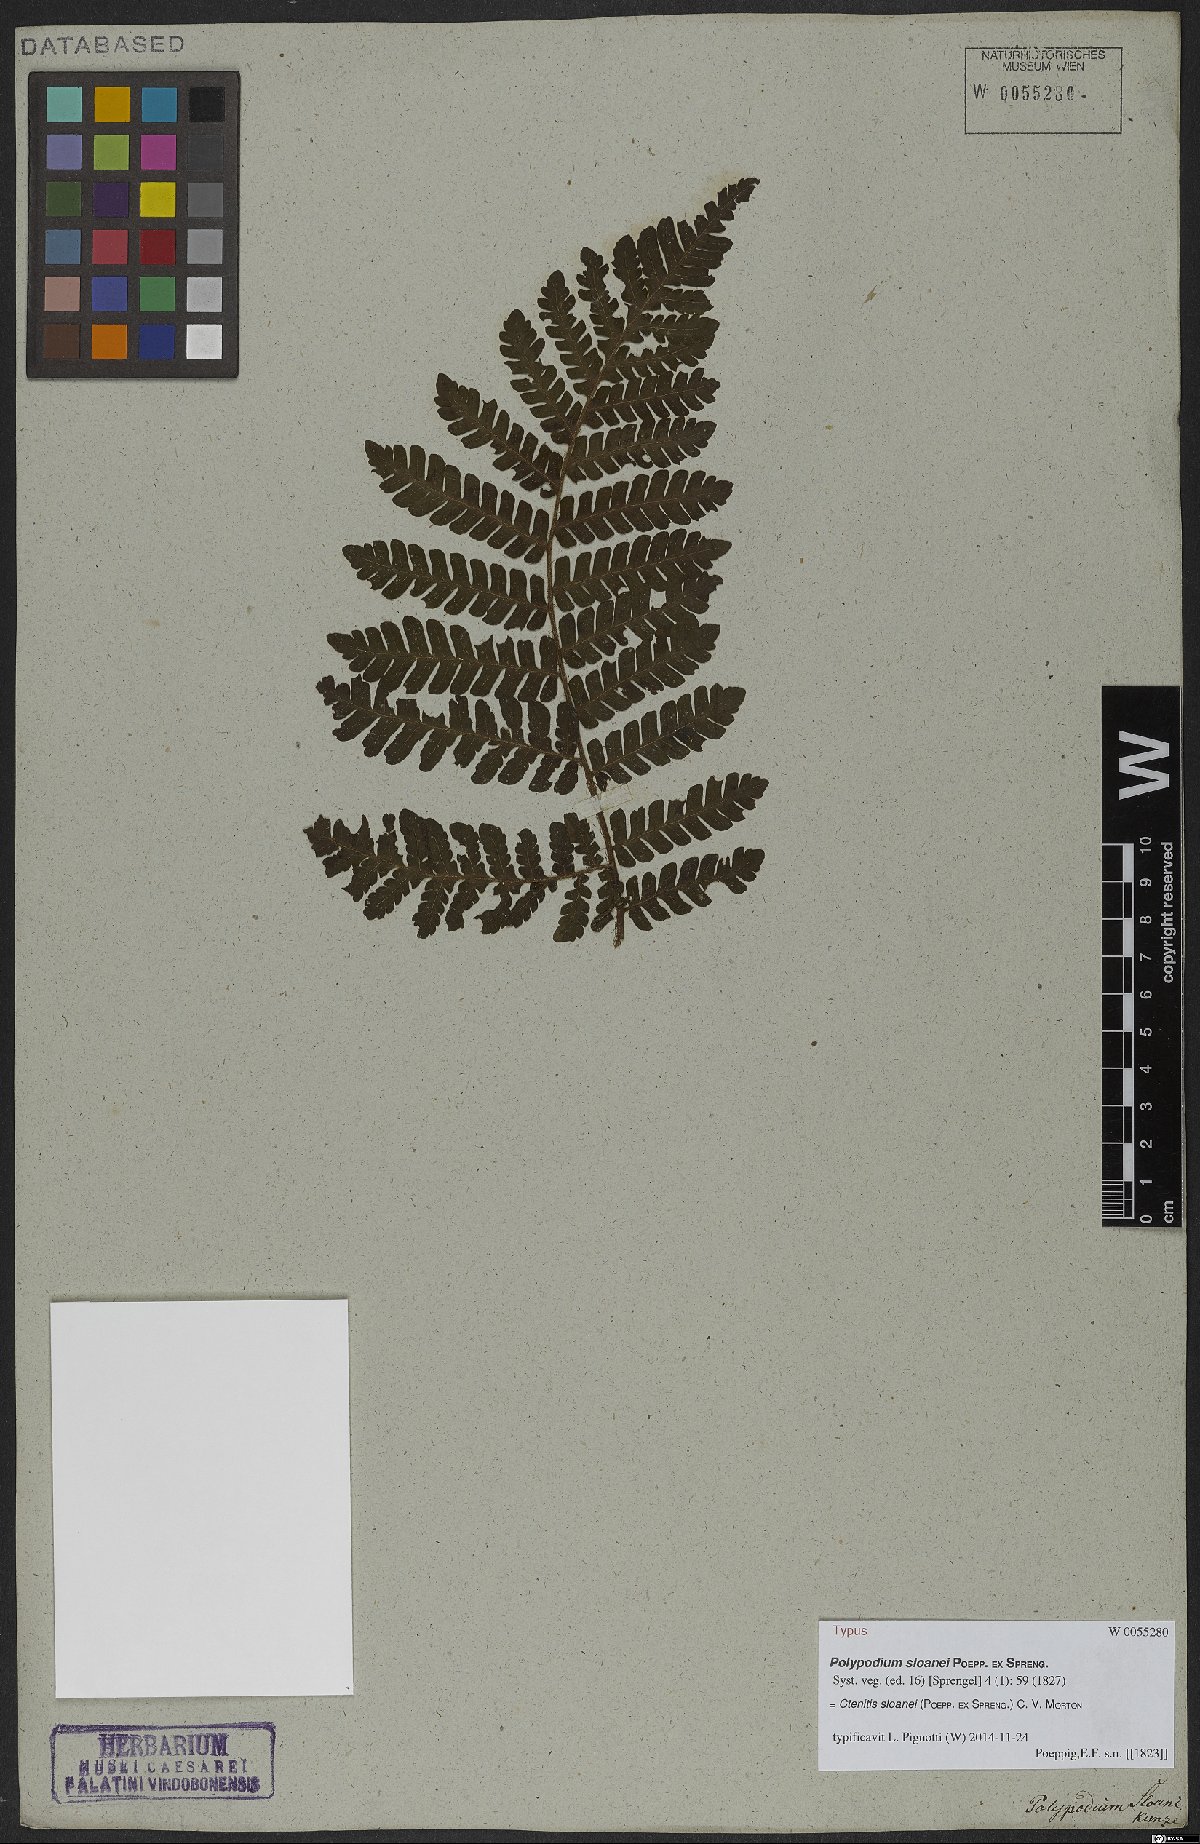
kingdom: Plantae
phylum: Tracheophyta
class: Polypodiopsida
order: Polypodiales
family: Dryopteridaceae
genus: Ctenitis
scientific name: Ctenitis sloanei
